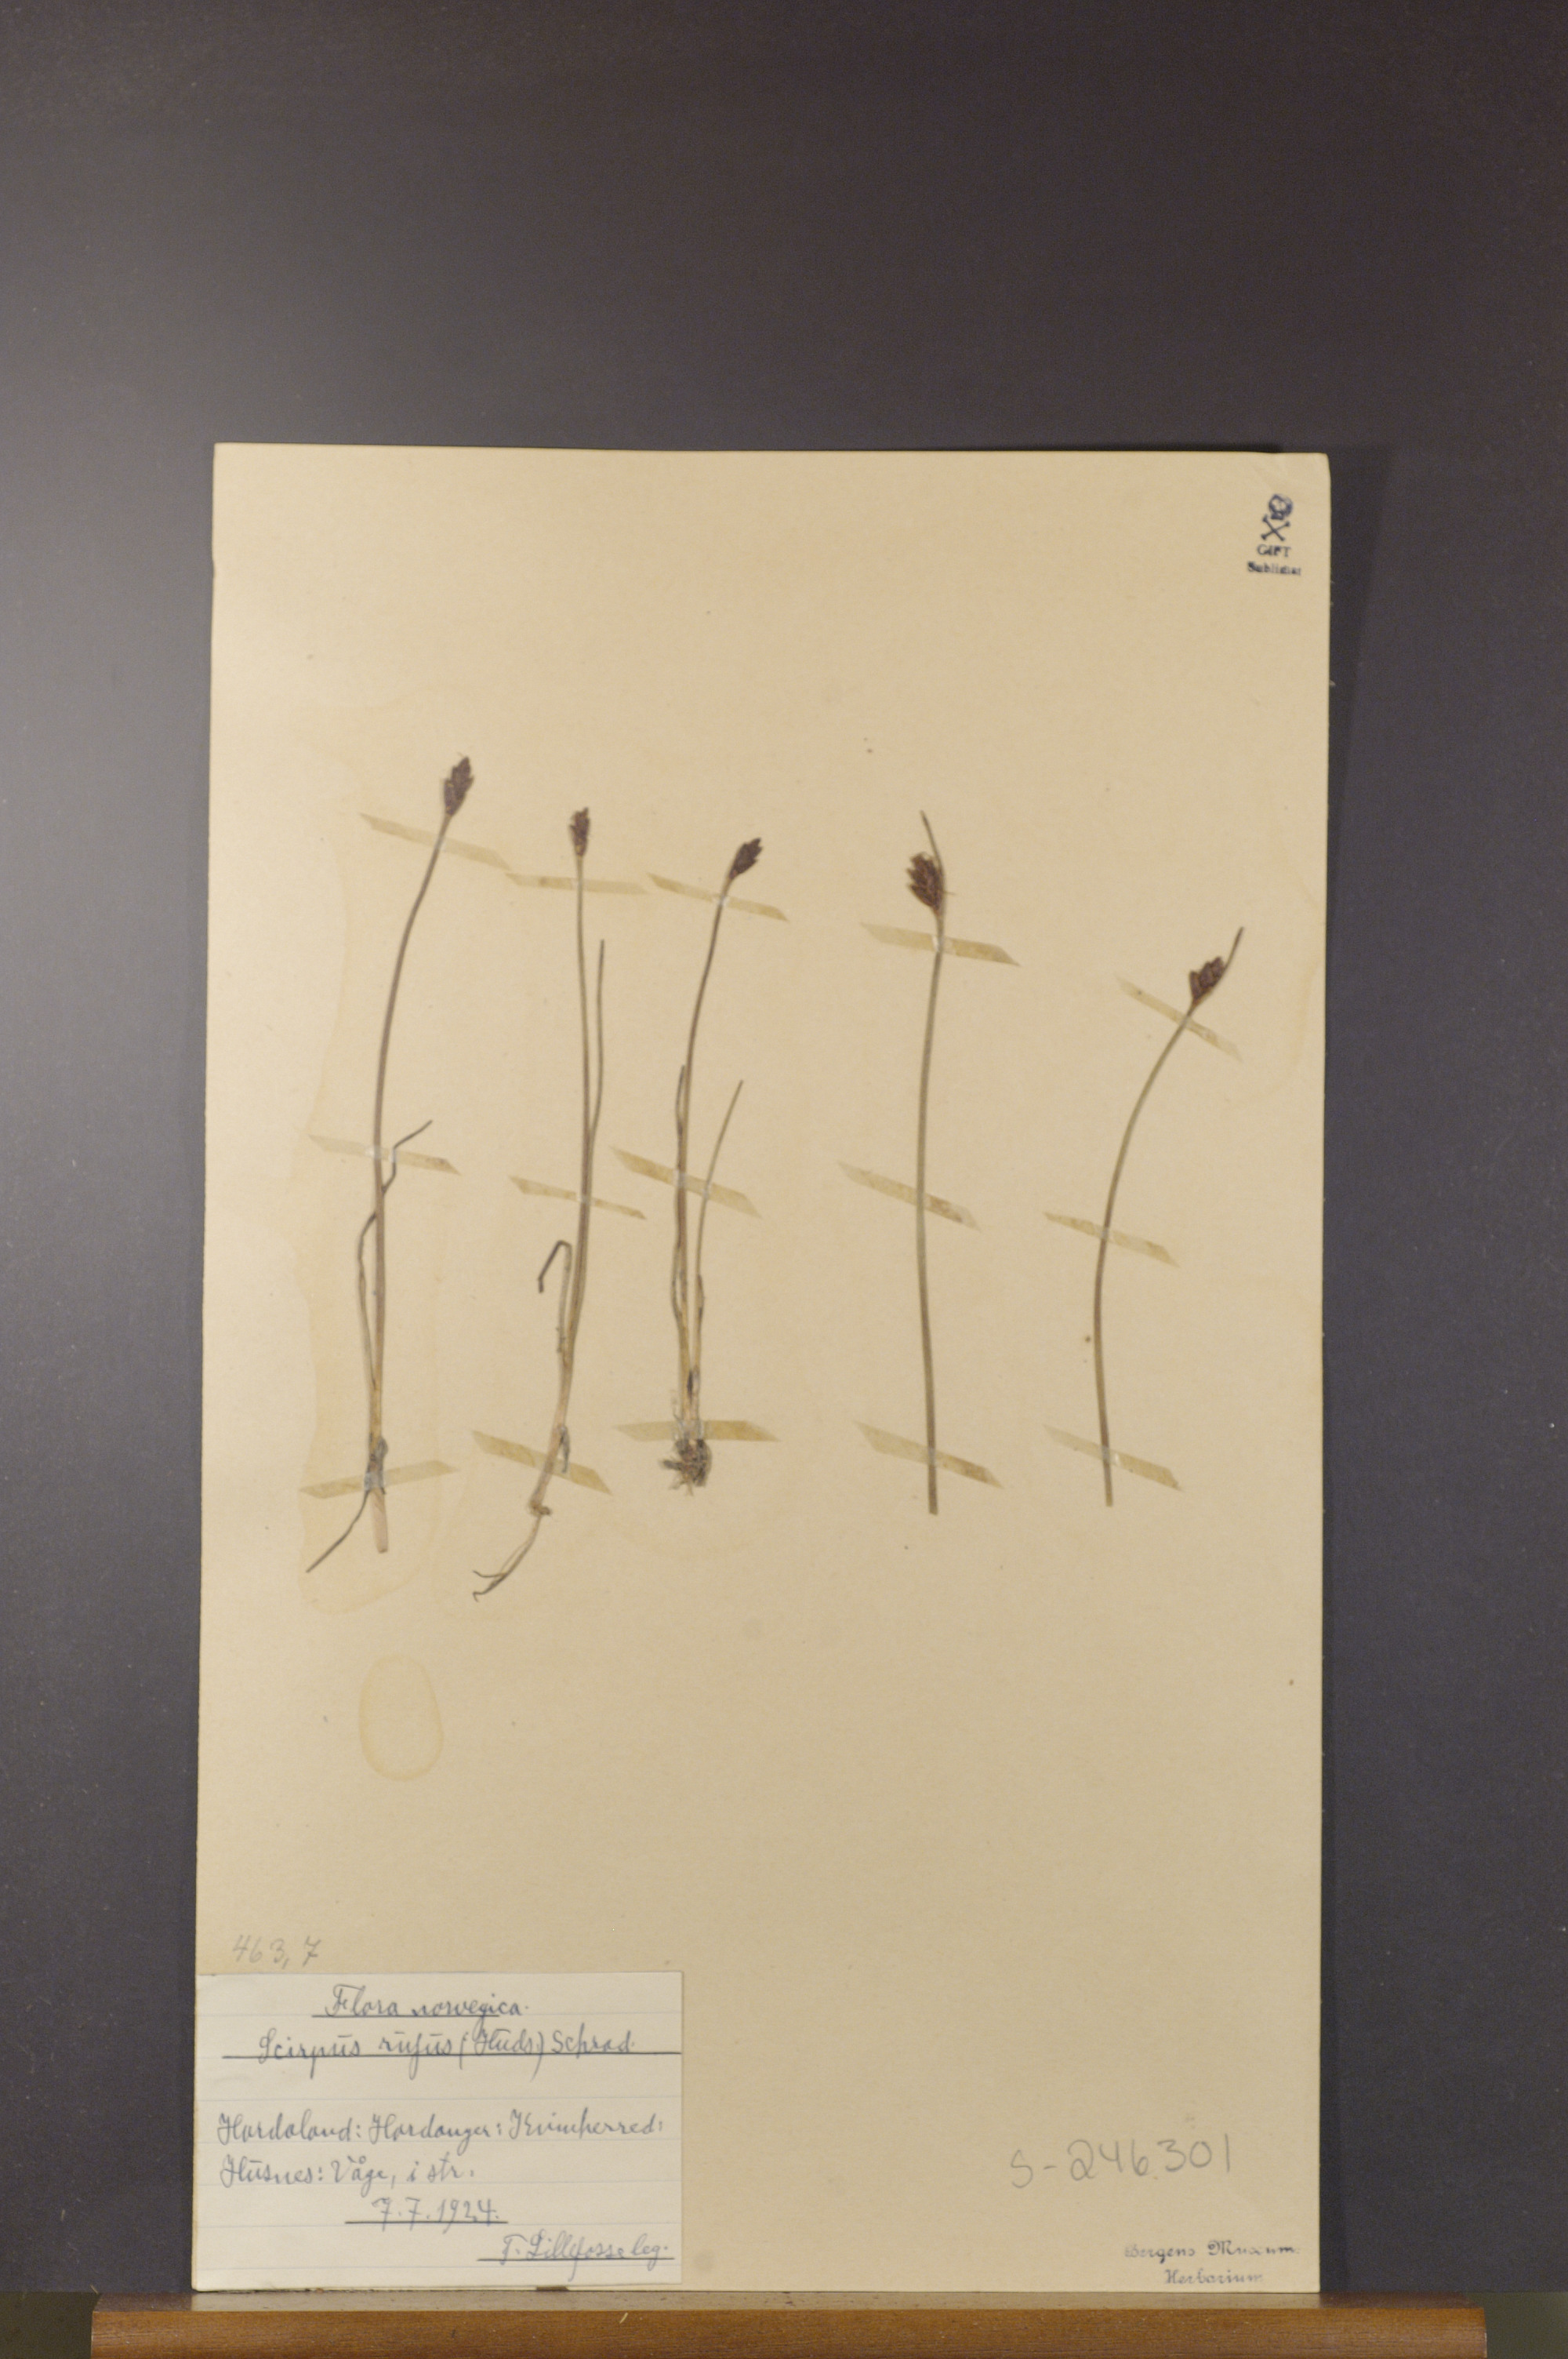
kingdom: Plantae
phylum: Tracheophyta
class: Liliopsida
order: Poales
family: Cyperaceae
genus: Blysmus
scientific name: Blysmus rufus
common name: Saltmarsh flat-sedge
